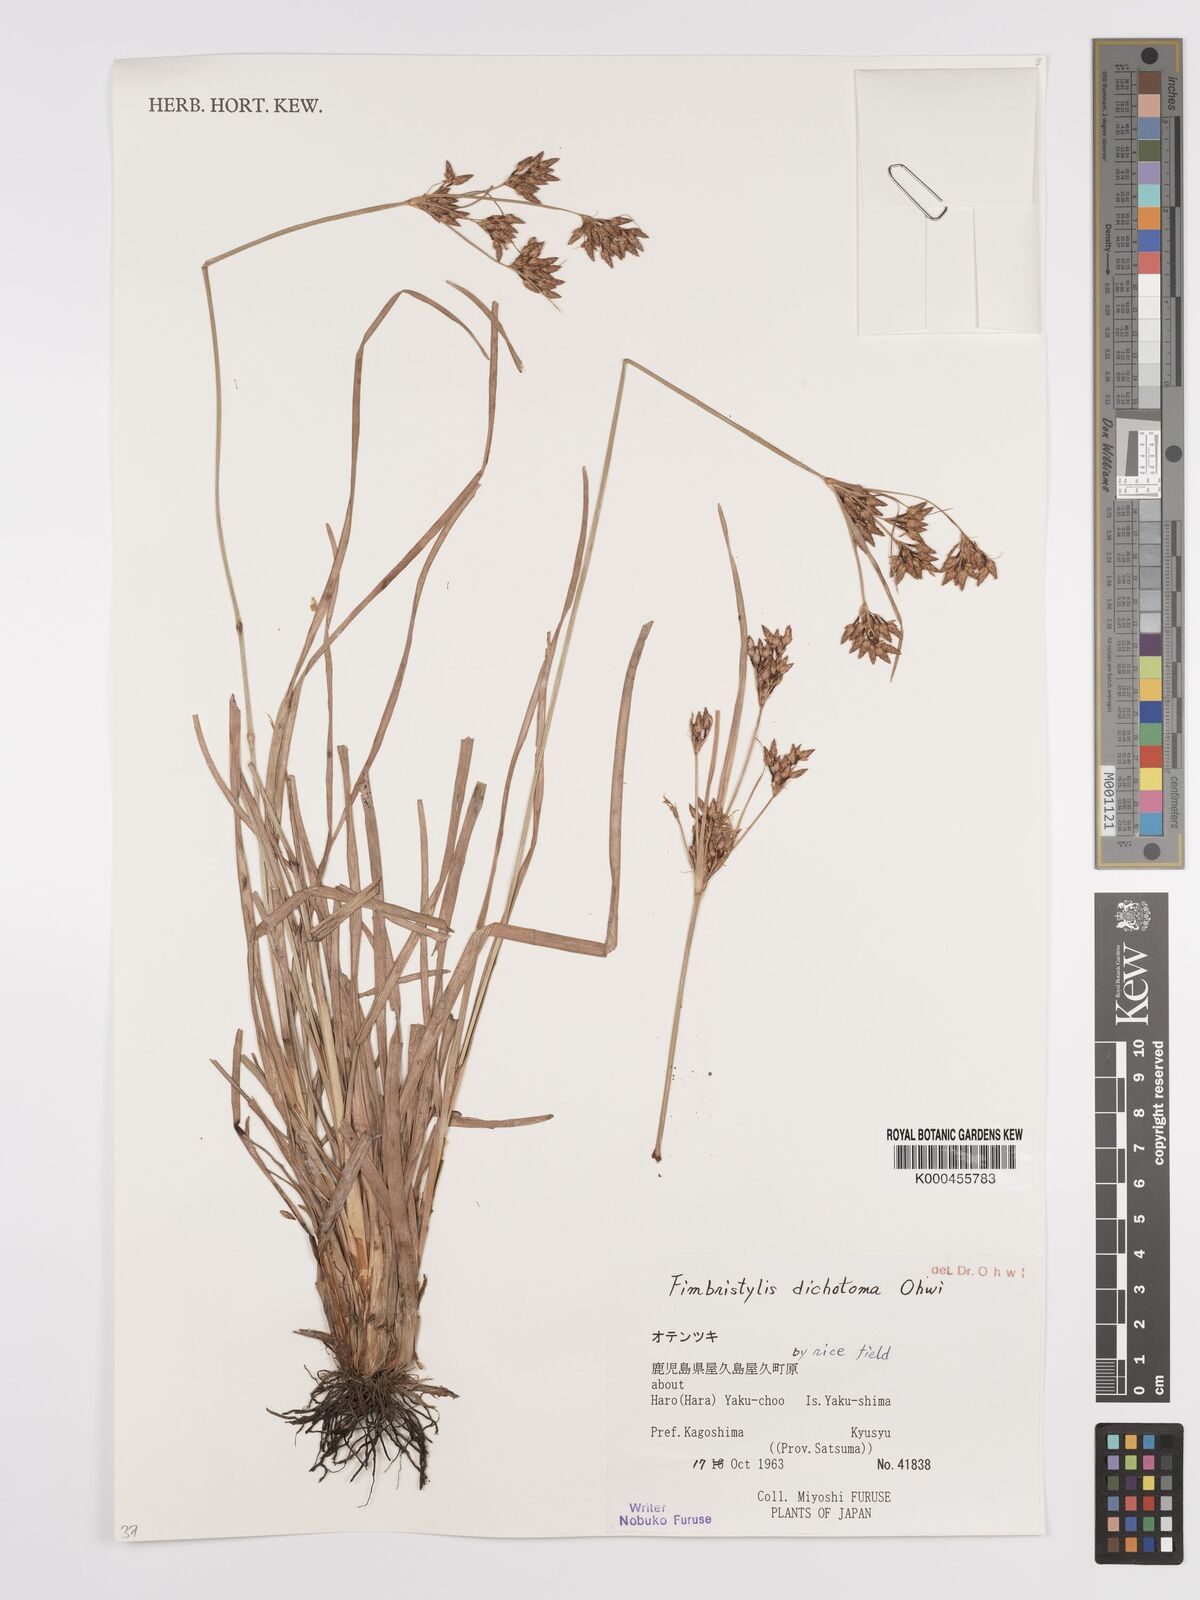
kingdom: Plantae
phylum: Tracheophyta
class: Liliopsida
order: Poales
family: Cyperaceae
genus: Fimbristylis
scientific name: Fimbristylis dichotoma
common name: Forked fimbry
